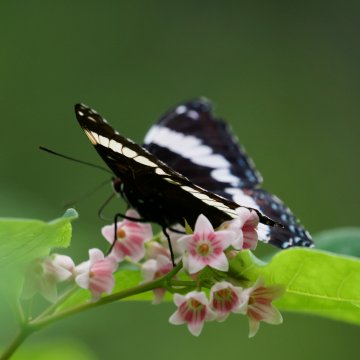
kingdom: Animalia
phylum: Arthropoda
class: Insecta
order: Lepidoptera
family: Nymphalidae
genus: Limenitis
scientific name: Limenitis arthemis
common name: Red-spotted Admiral
